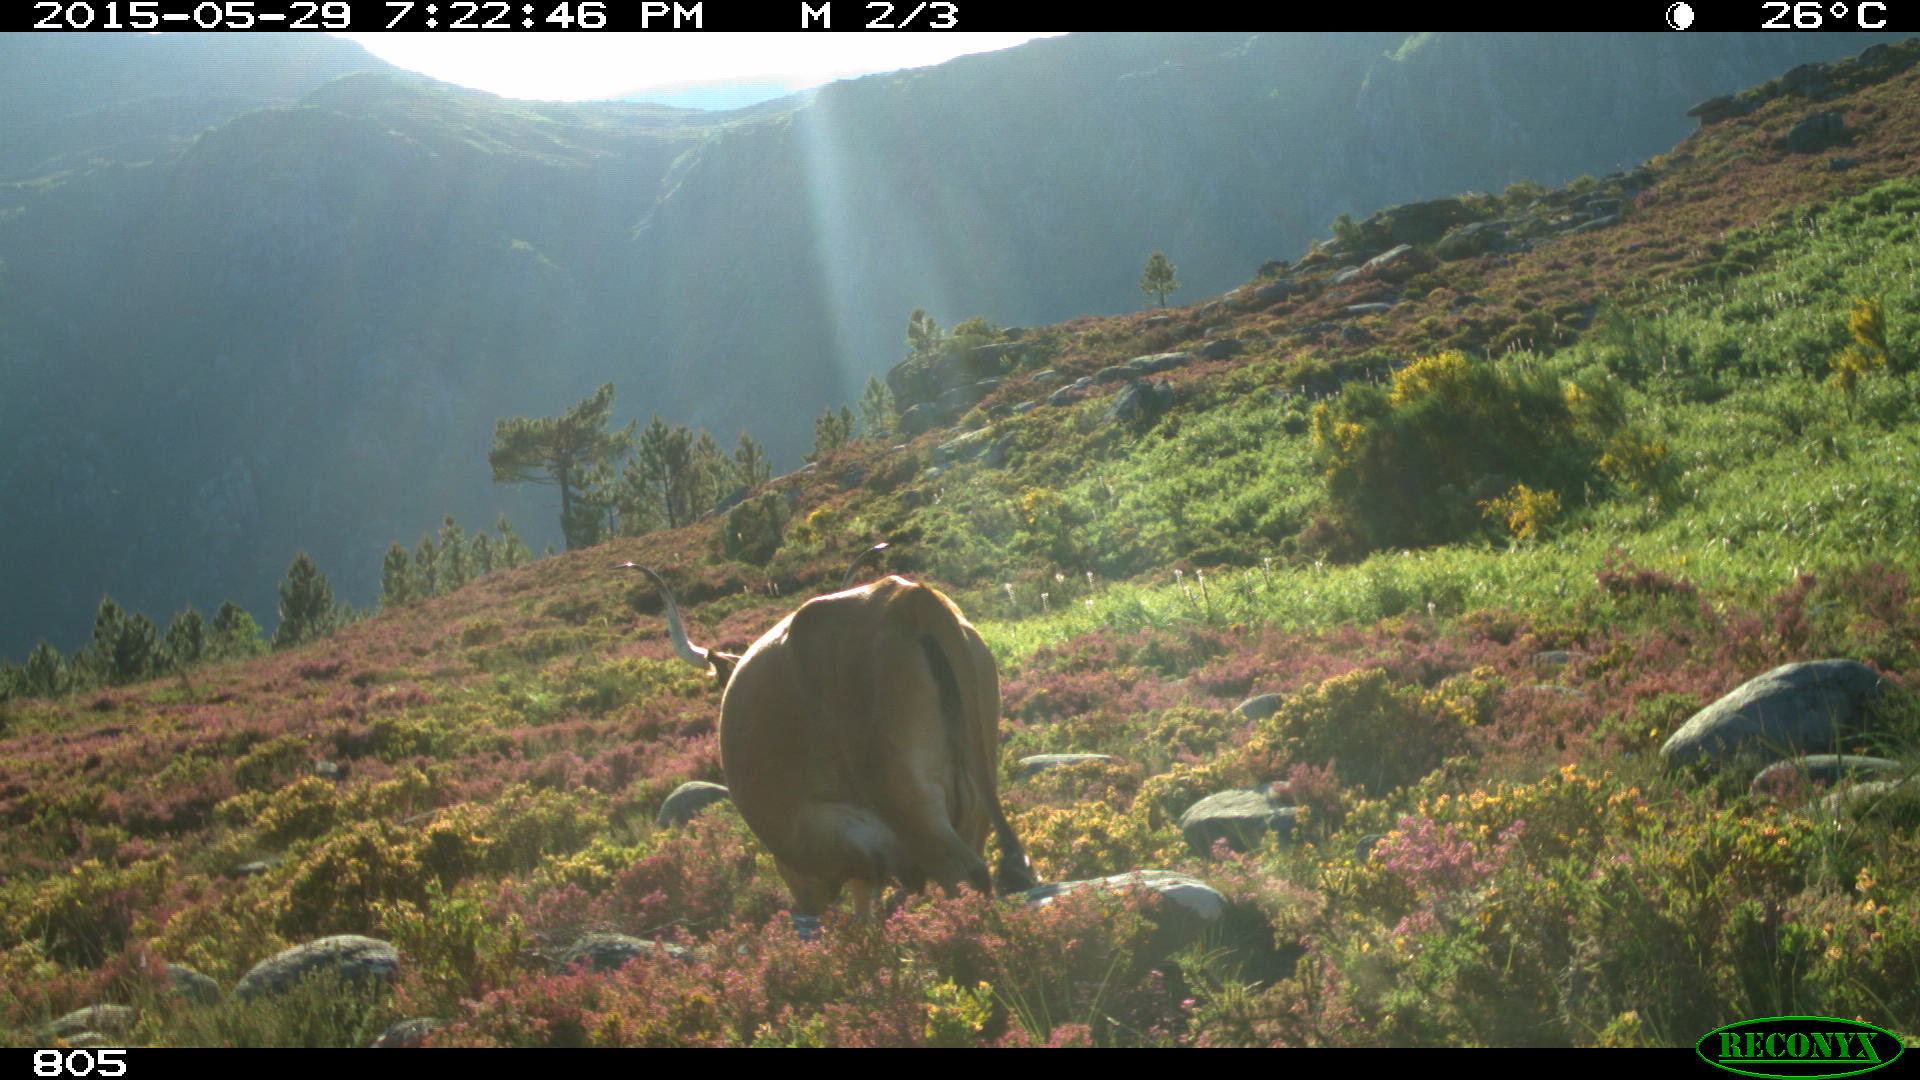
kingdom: Animalia
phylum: Chordata
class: Mammalia
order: Artiodactyla
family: Bovidae
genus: Bos
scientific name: Bos taurus
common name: Domesticated cattle
